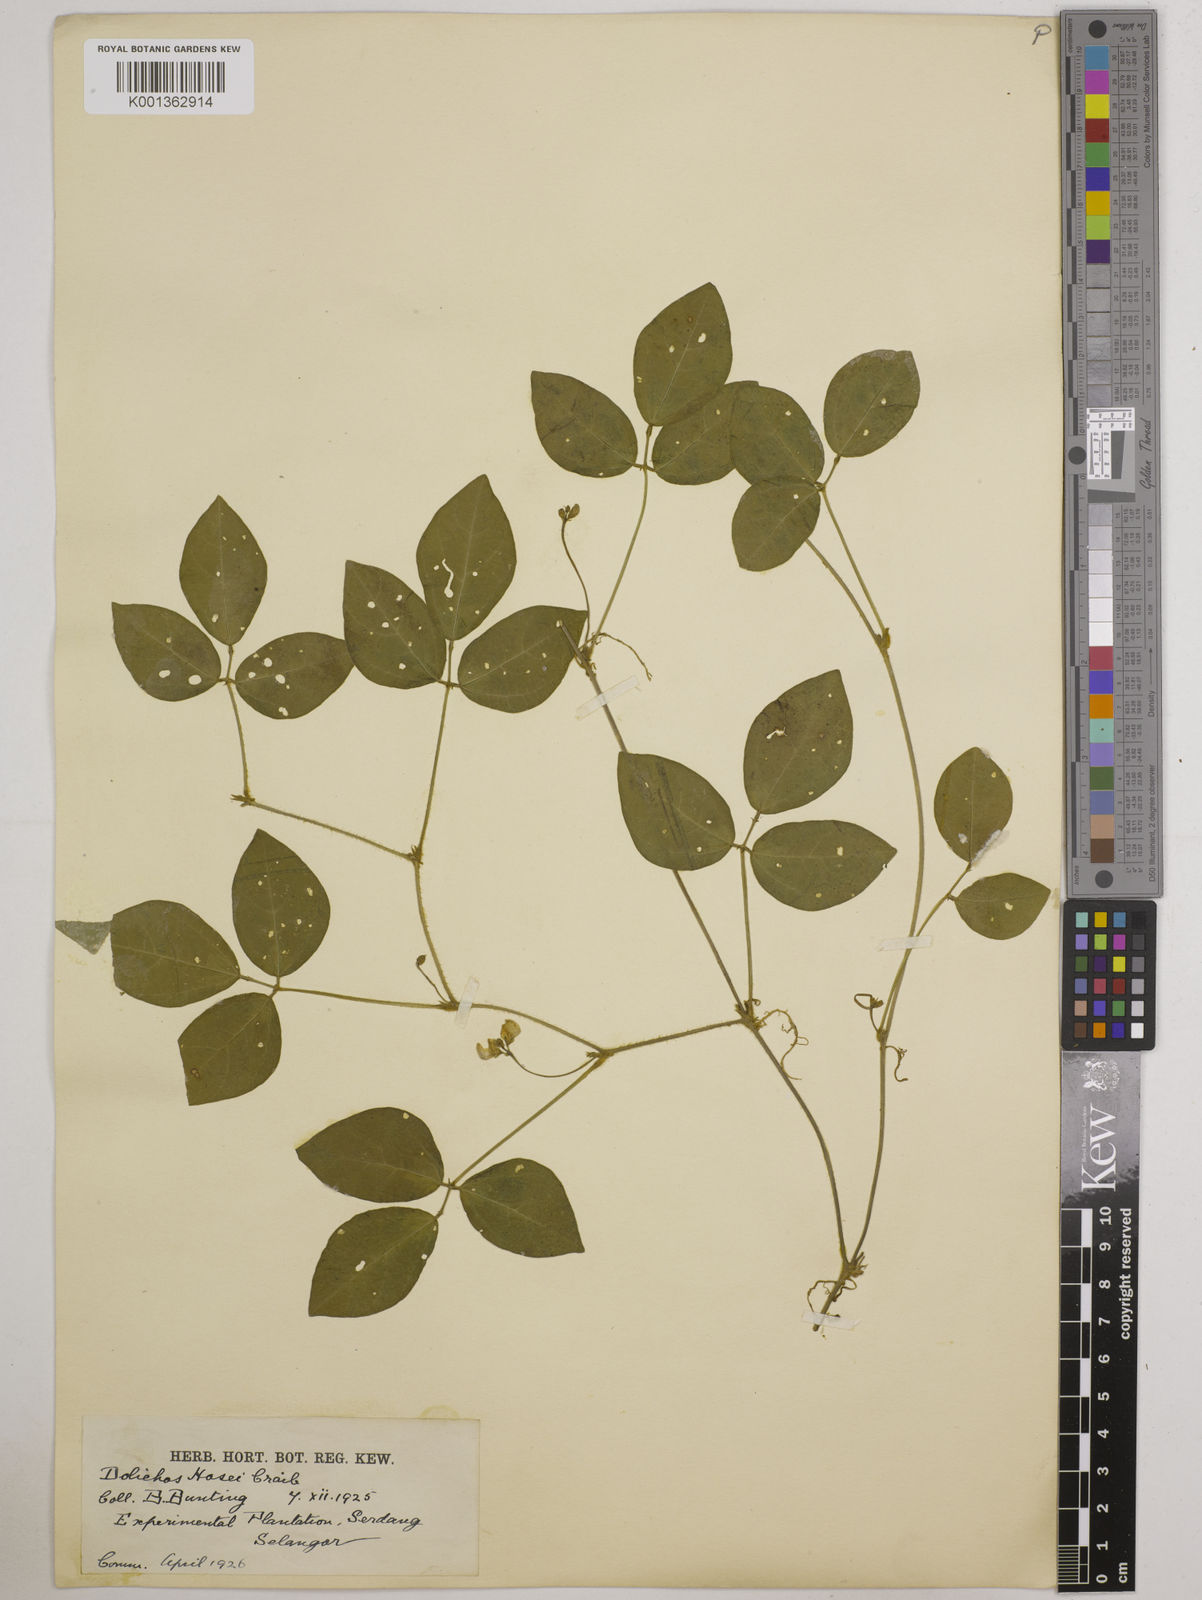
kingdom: Plantae
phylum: Tracheophyta
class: Magnoliopsida
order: Fabales
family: Fabaceae
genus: Vigna
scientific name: Vigna hosei
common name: Sarawak-bean
